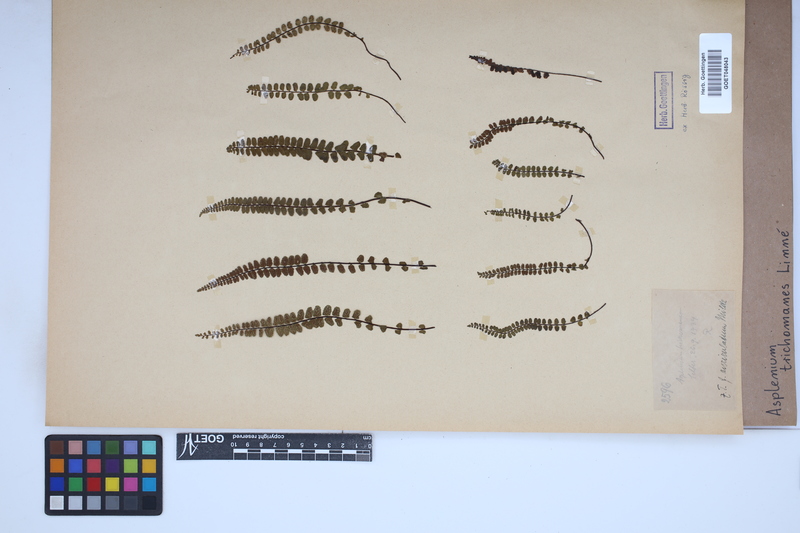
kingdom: Plantae
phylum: Tracheophyta
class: Polypodiopsida
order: Polypodiales
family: Aspleniaceae
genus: Asplenium
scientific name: Asplenium trichomanes
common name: Maidenhair spleenwort
